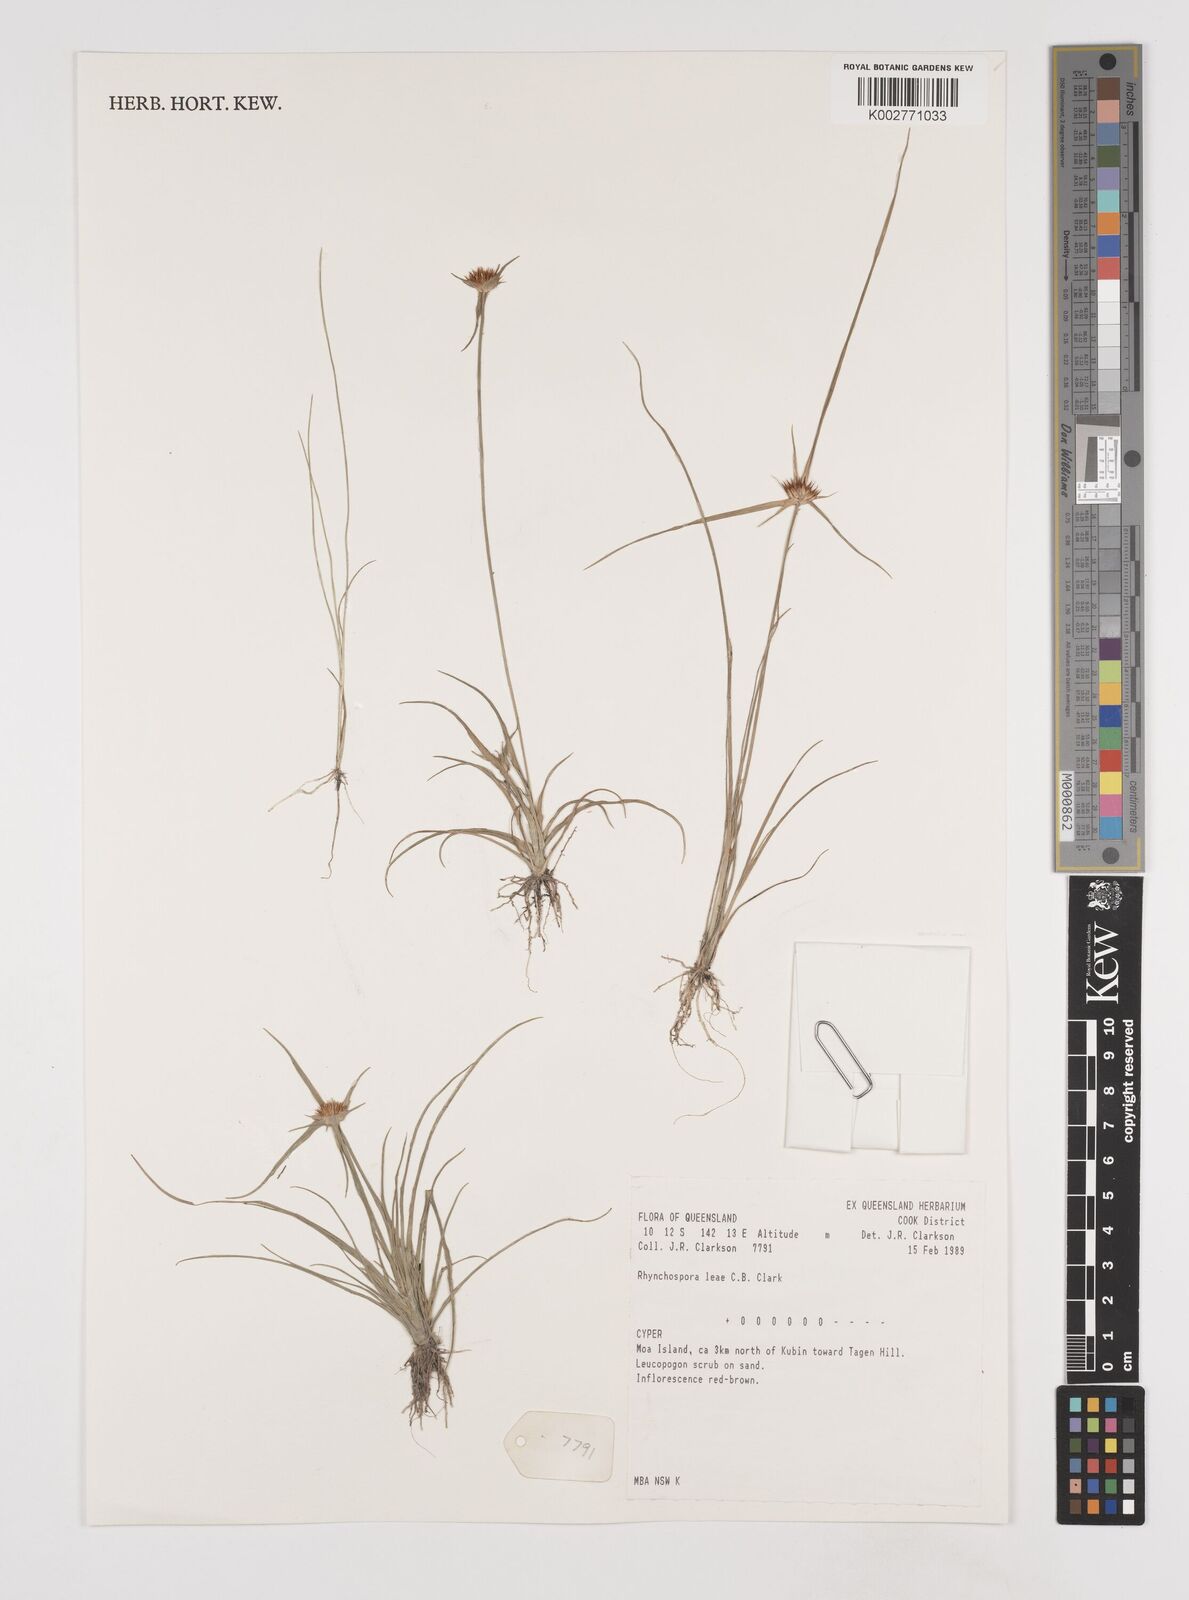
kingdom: Plantae
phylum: Tracheophyta
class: Liliopsida
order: Poales
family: Cyperaceae
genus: Rhynchospora
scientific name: Rhynchospora leae
